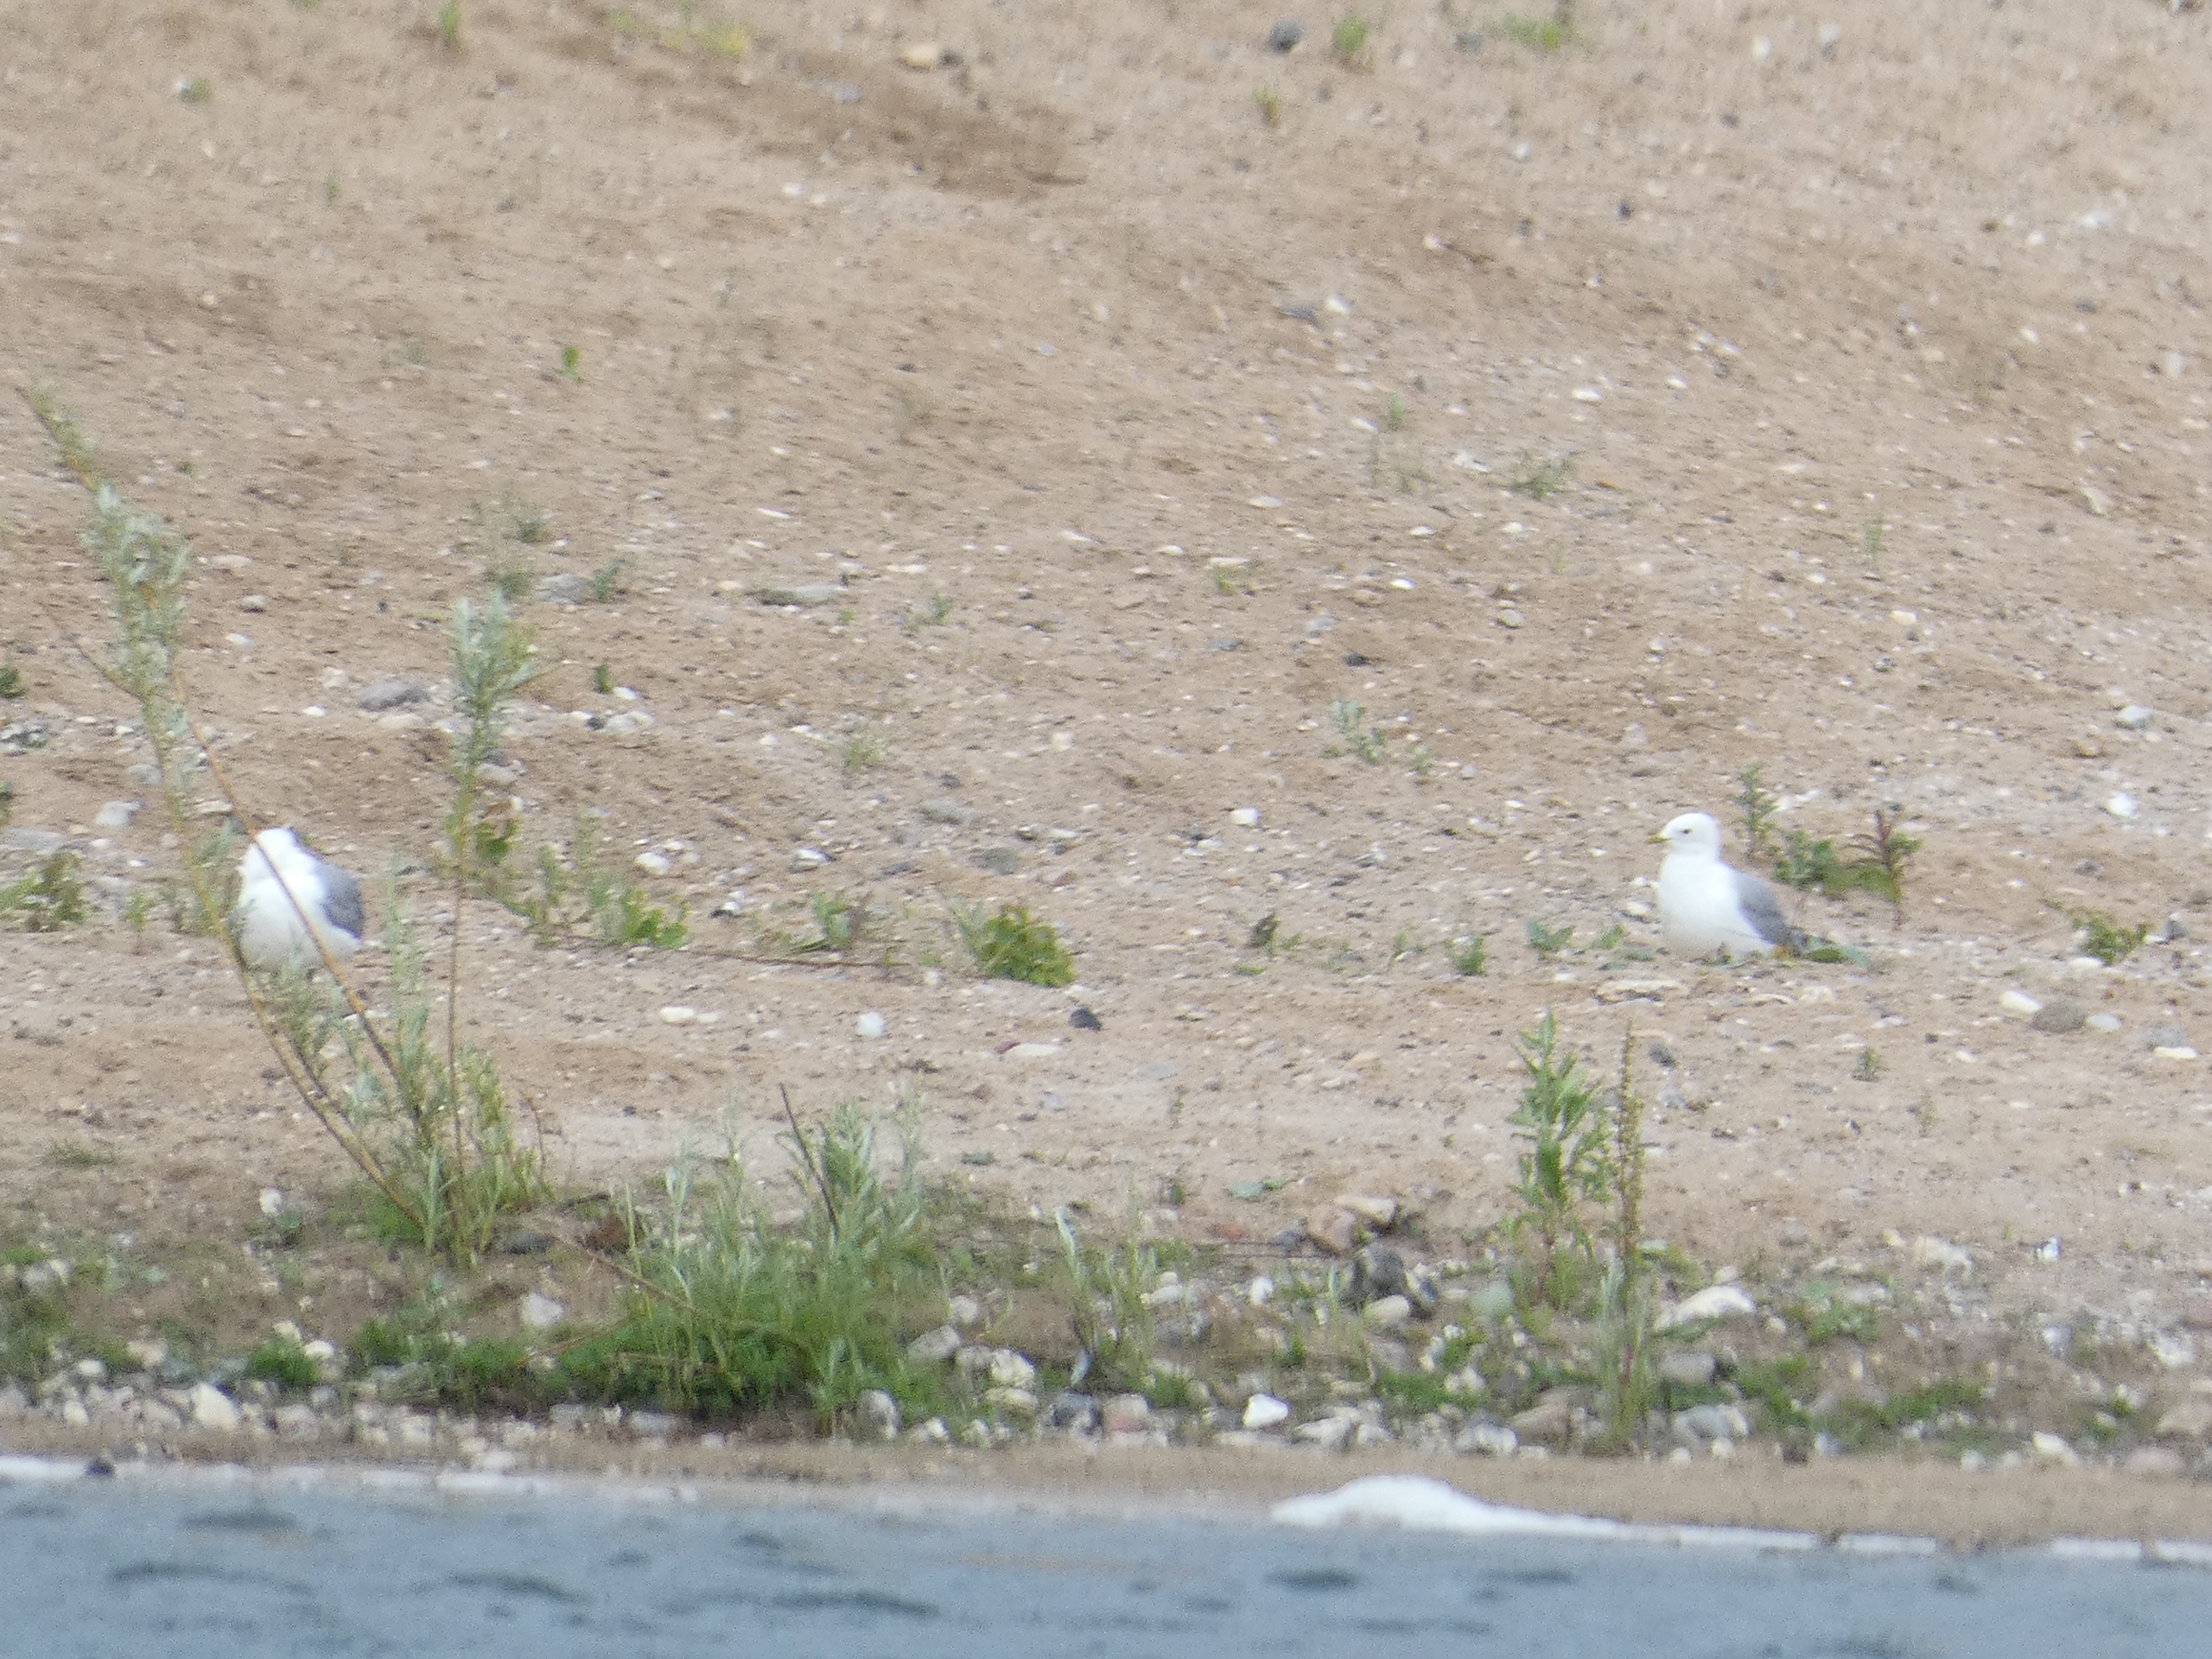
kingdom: Animalia
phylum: Chordata
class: Aves
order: Charadriiformes
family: Laridae
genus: Larus
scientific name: Larus canus
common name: Stormmåge
